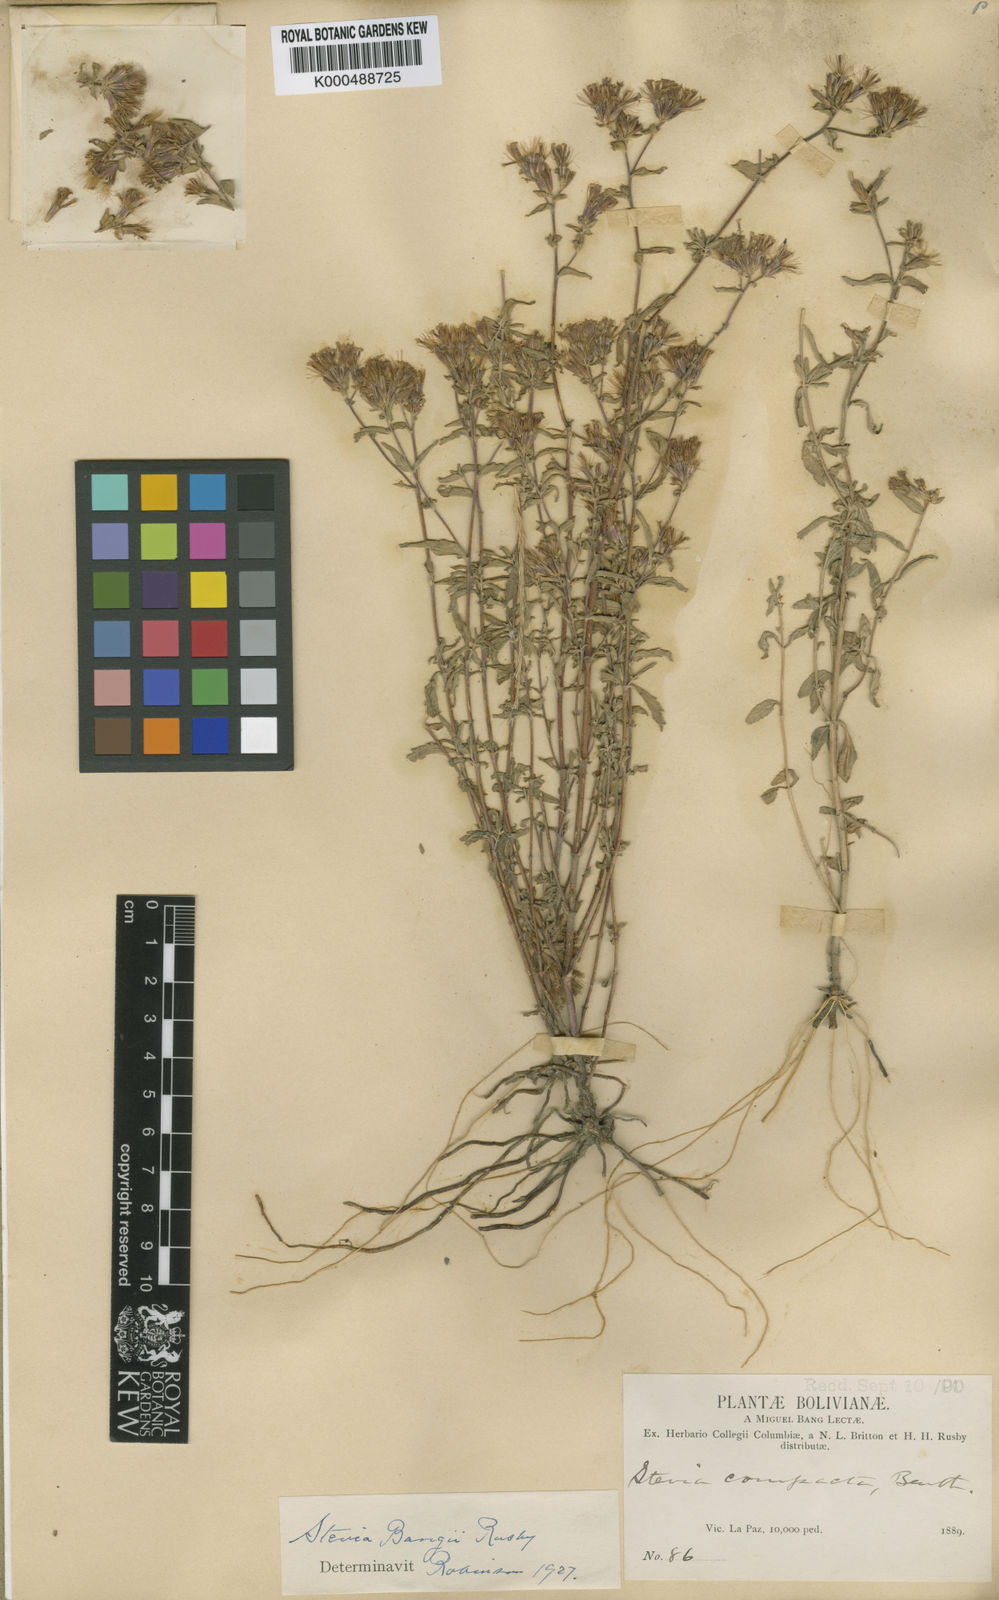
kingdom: Plantae
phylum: Tracheophyta
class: Magnoliopsida
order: Asterales
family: Asteraceae
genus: Stevia
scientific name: Stevia minor
